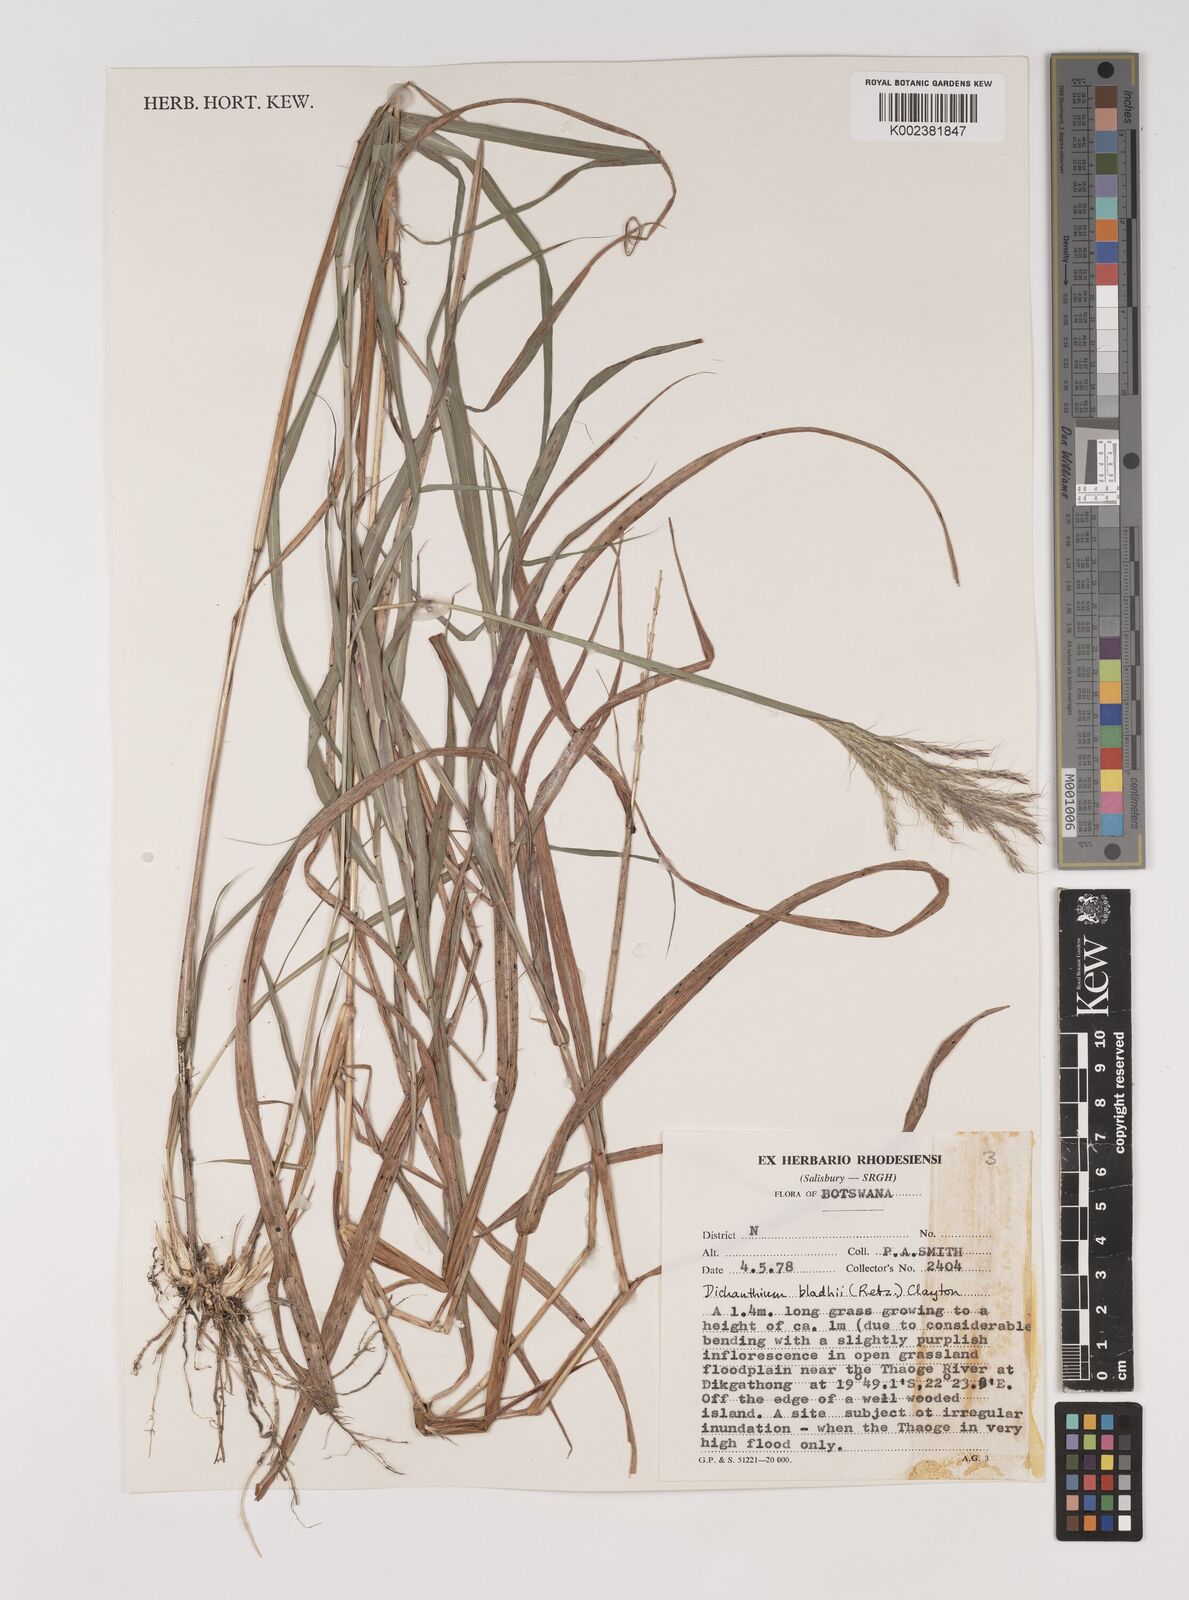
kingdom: Plantae
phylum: Tracheophyta
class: Liliopsida
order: Poales
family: Poaceae
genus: Bothriochloa
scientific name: Bothriochloa bladhii
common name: Caucasian bluestem
